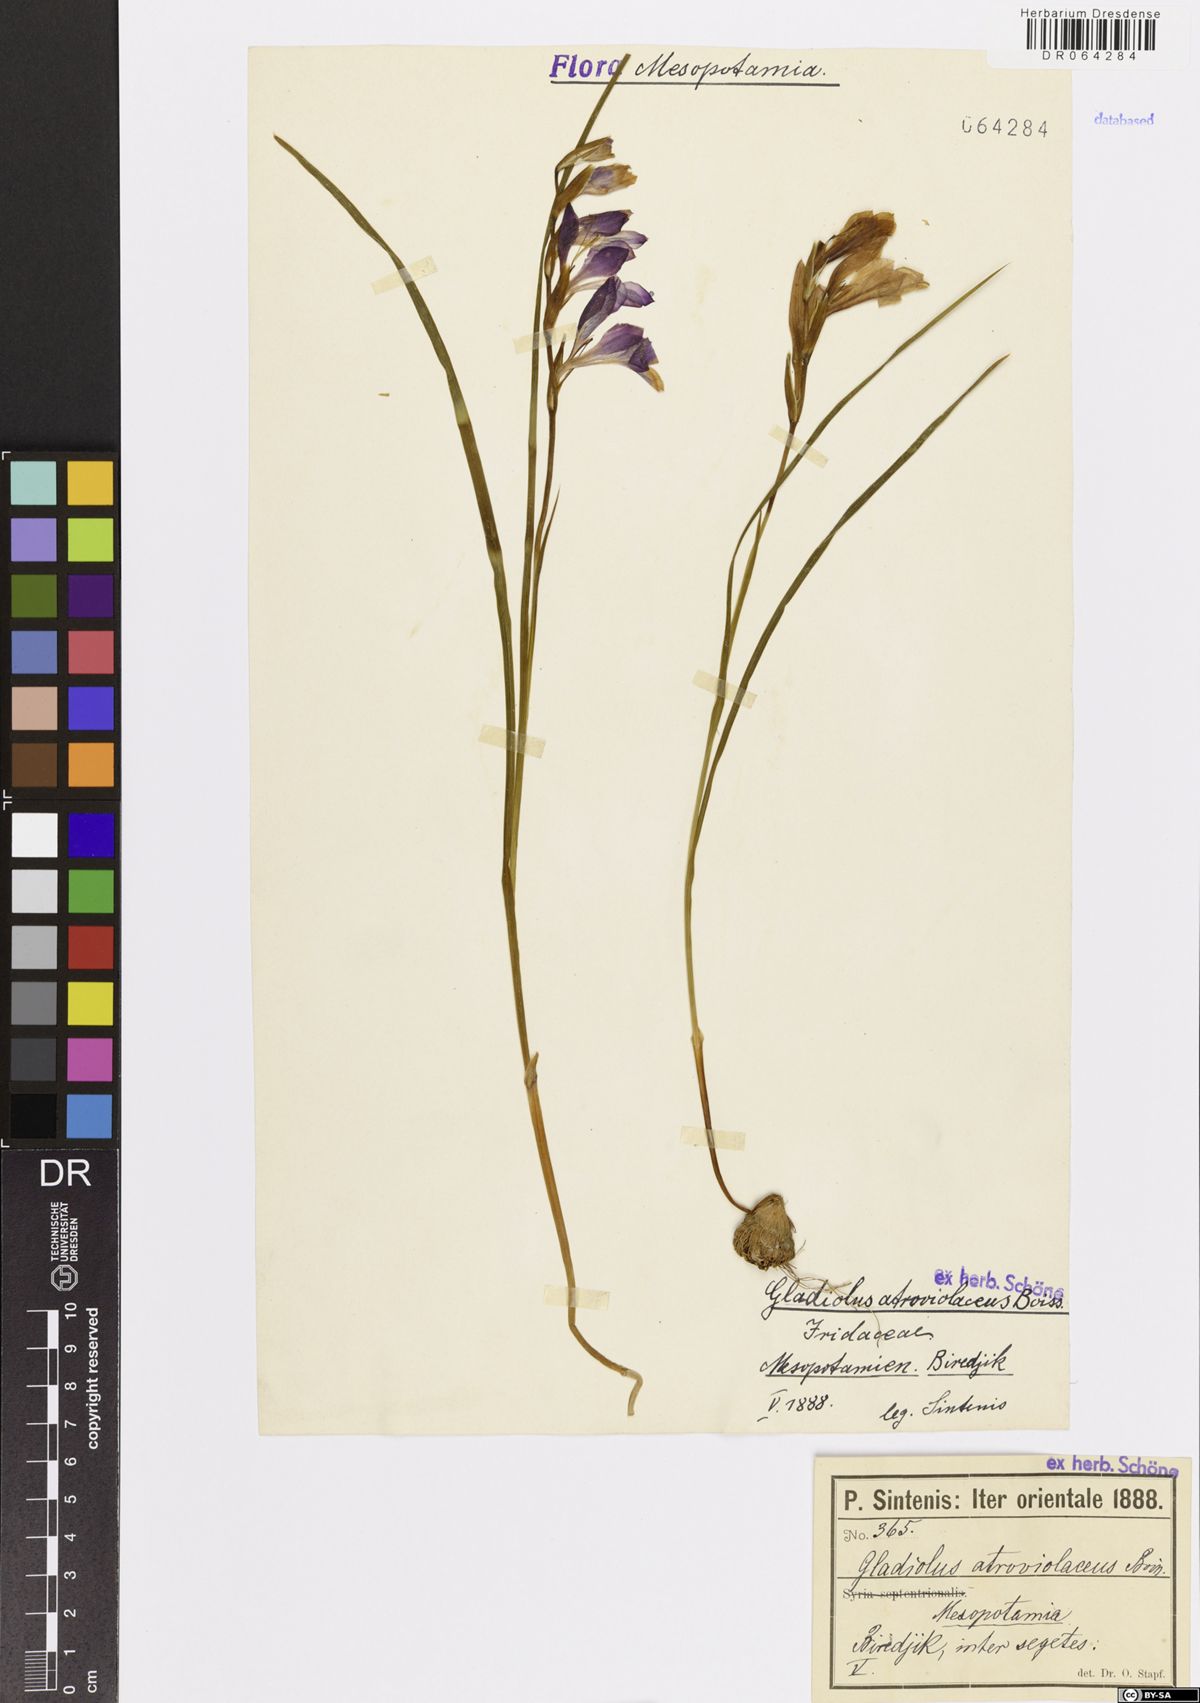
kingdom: Plantae
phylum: Tracheophyta
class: Liliopsida
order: Asparagales
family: Iridaceae
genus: Gladiolus
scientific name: Gladiolus atroviolaceus
